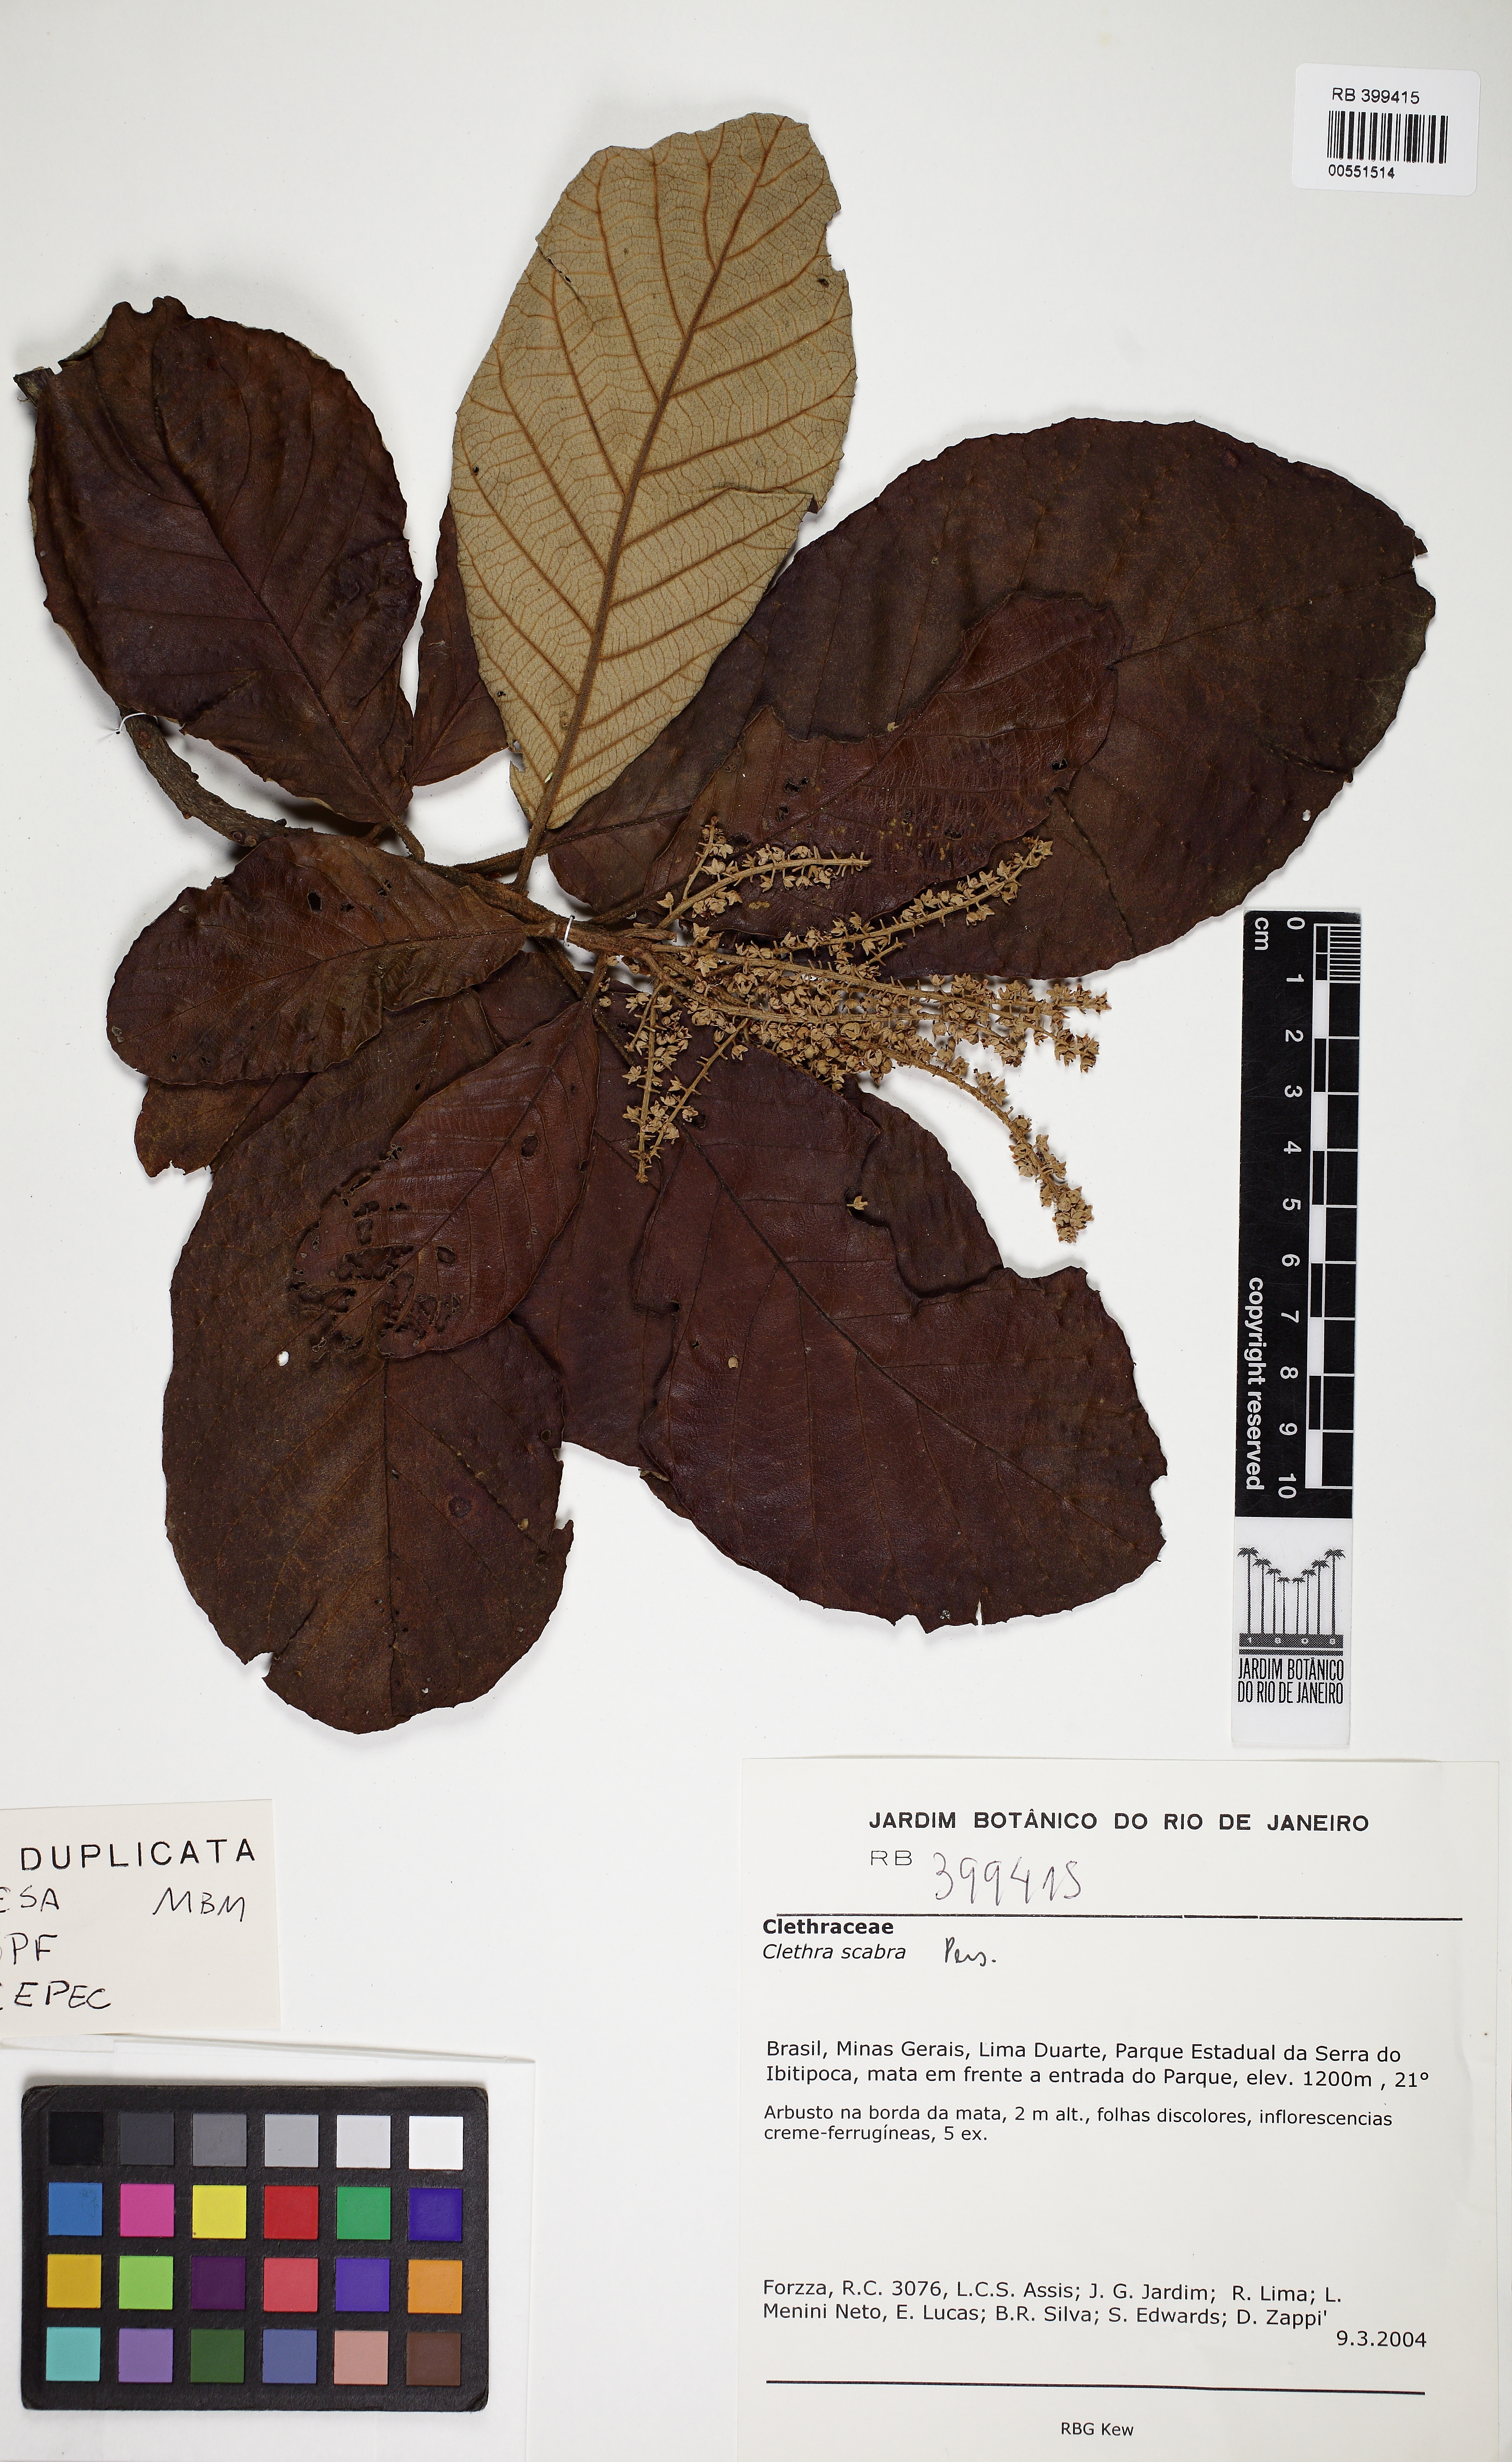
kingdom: Plantae
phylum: Tracheophyta
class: Magnoliopsida
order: Ericales
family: Clethraceae
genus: Clethra
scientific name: Clethra scabra
